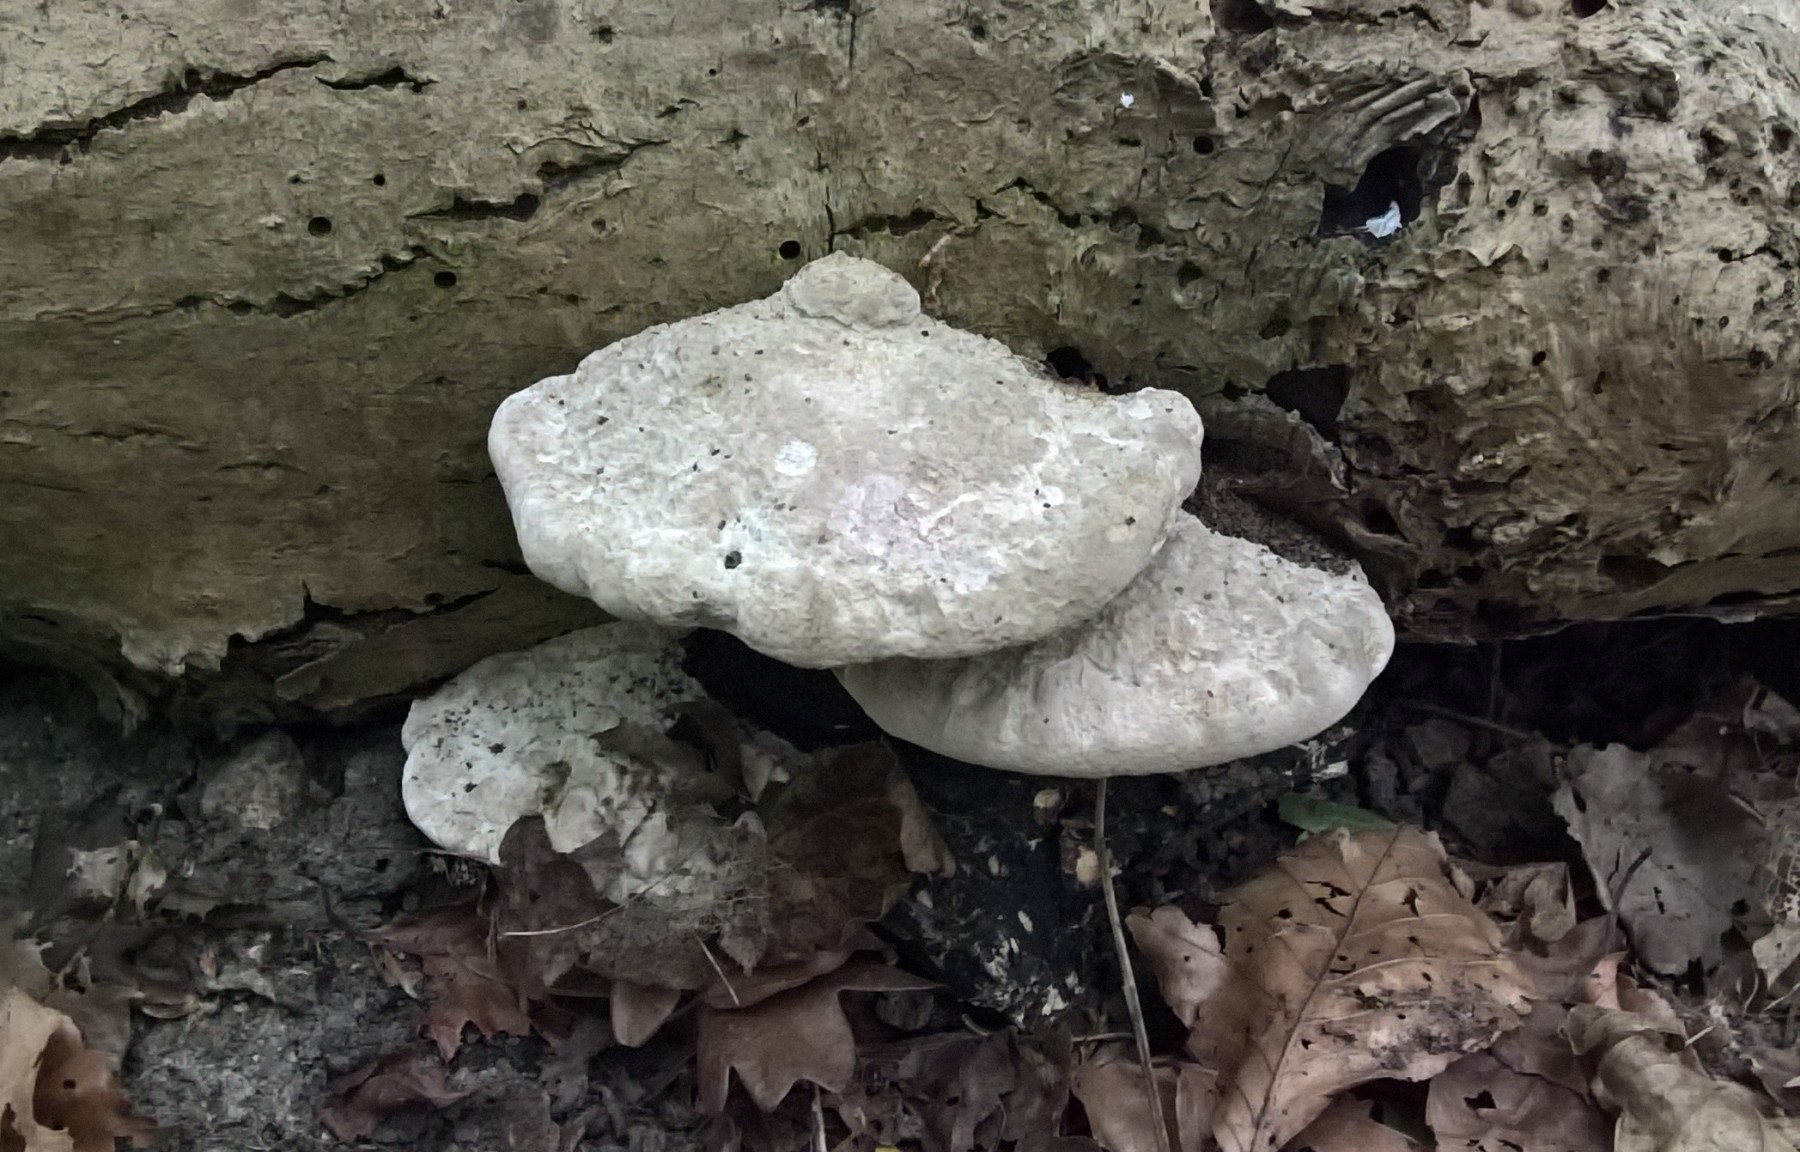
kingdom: Fungi
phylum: Basidiomycota
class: Agaricomycetes
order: Polyporales
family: Polyporaceae
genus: Daedaleopsis
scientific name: Daedaleopsis confragosa
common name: rødmende læderporesvamp
